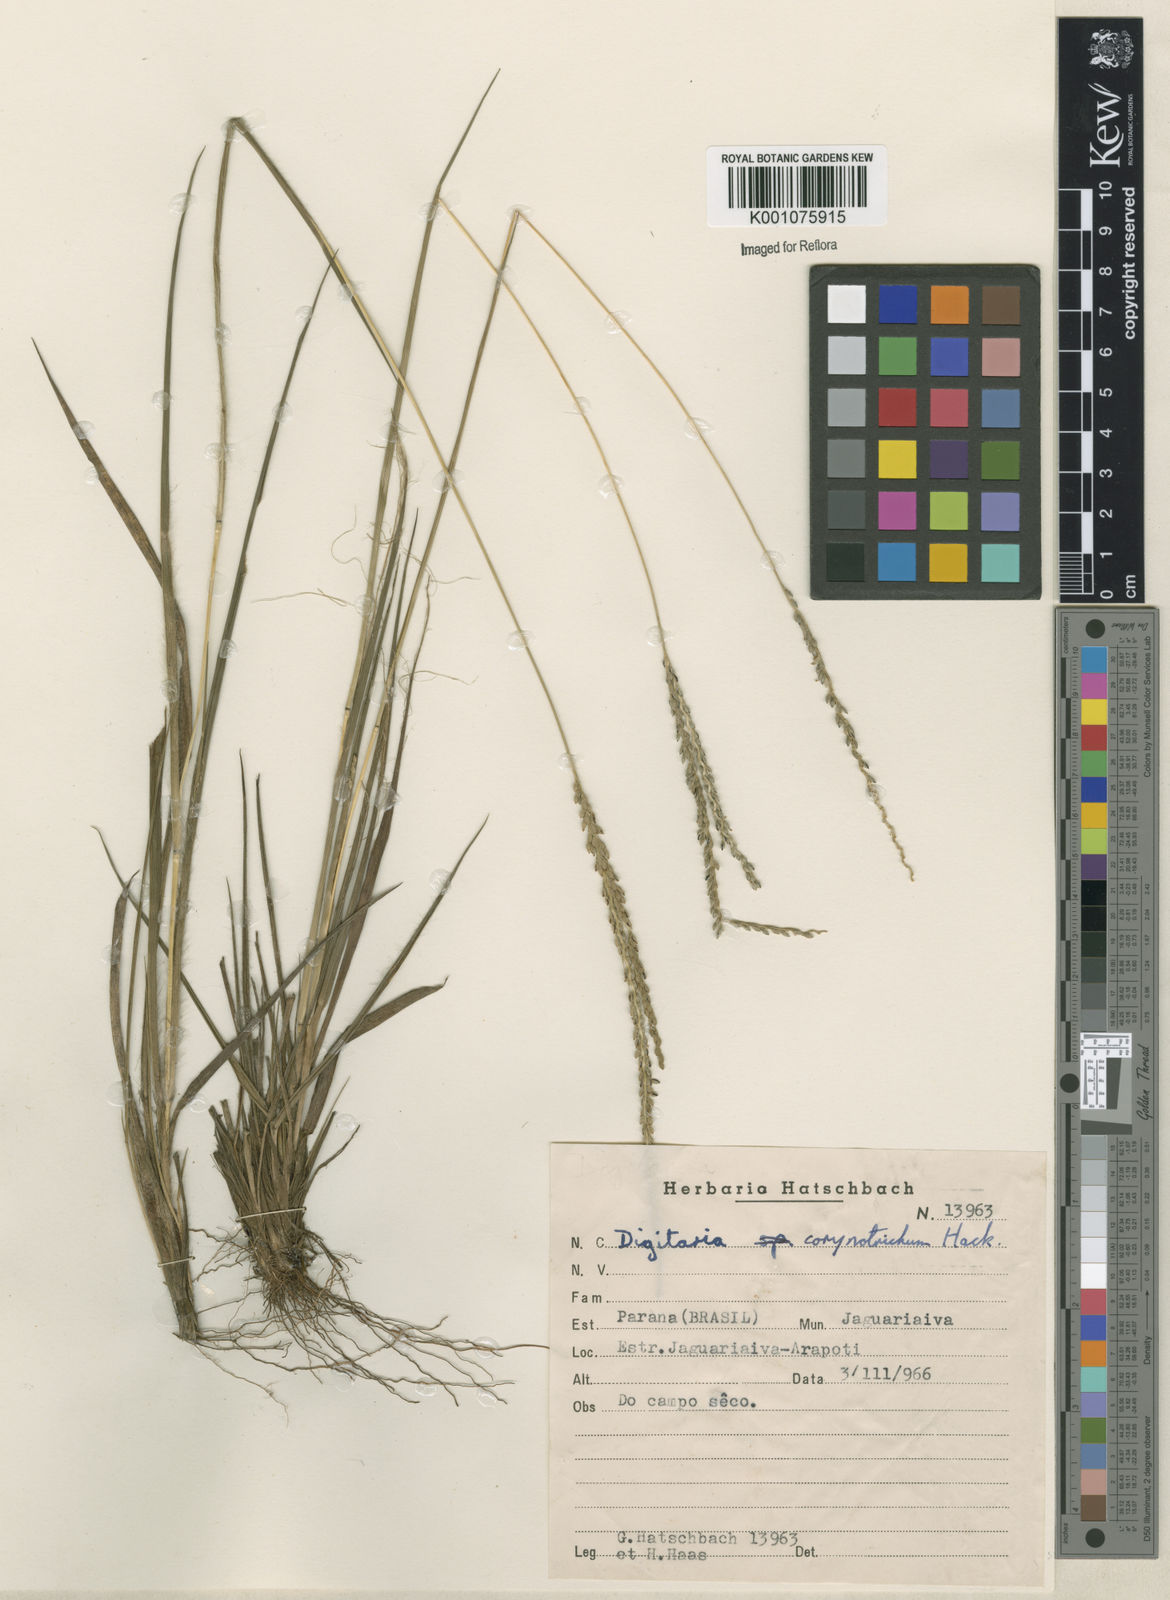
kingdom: Plantae
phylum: Tracheophyta
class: Liliopsida
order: Poales
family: Poaceae
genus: Digitaria
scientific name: Digitaria corynotricha
